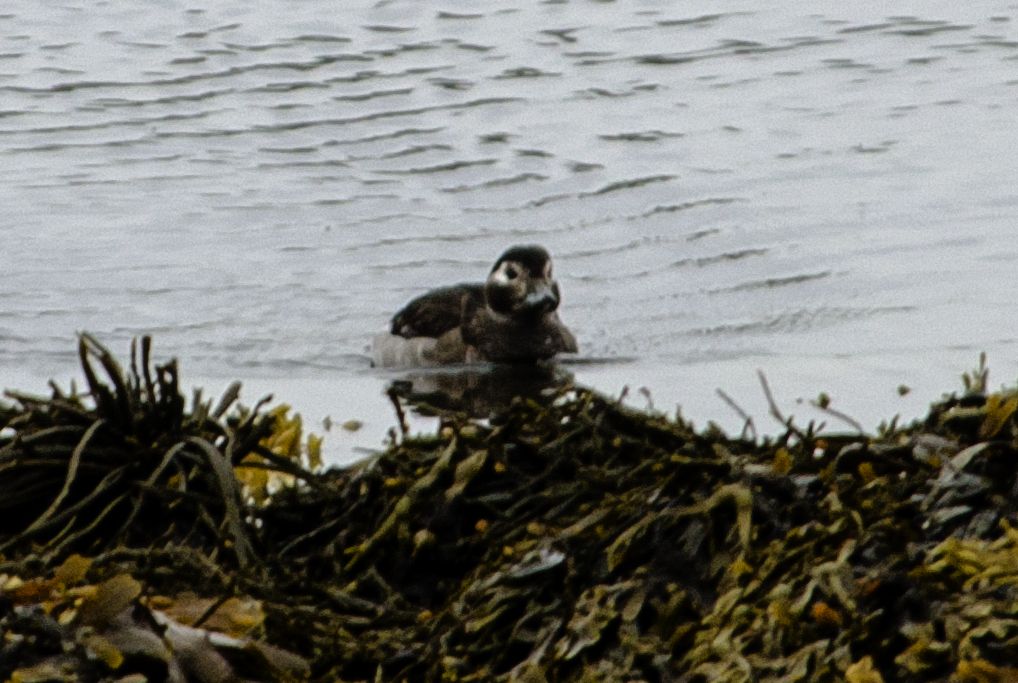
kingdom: Animalia
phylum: Chordata
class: Aves
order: Anseriformes
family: Anatidae
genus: Clangula
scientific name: Clangula hyemalis
